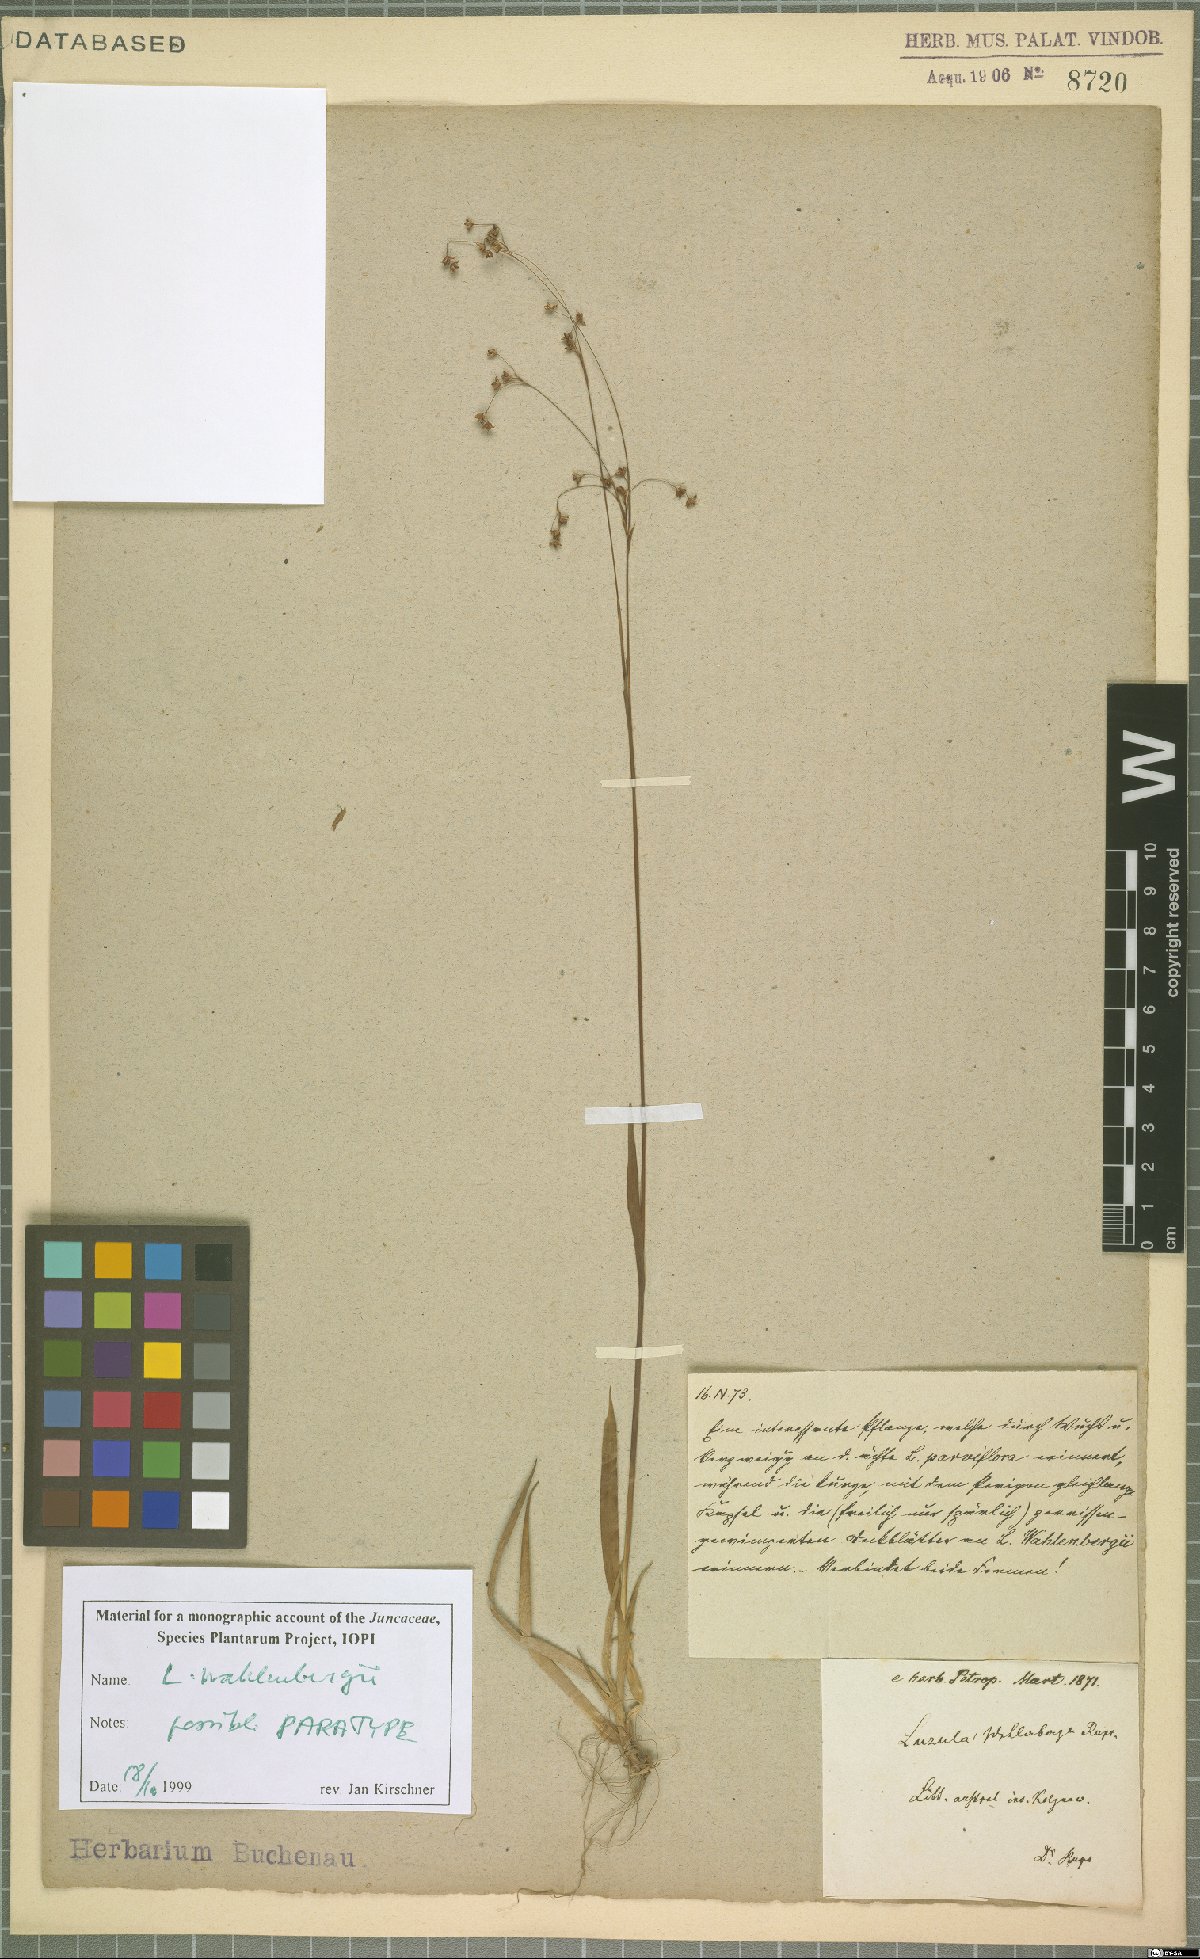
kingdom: Plantae
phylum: Tracheophyta
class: Liliopsida
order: Poales
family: Juncaceae
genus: Luzula
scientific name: Luzula wahlenbergii
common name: Wahlenberg's wood-rush
